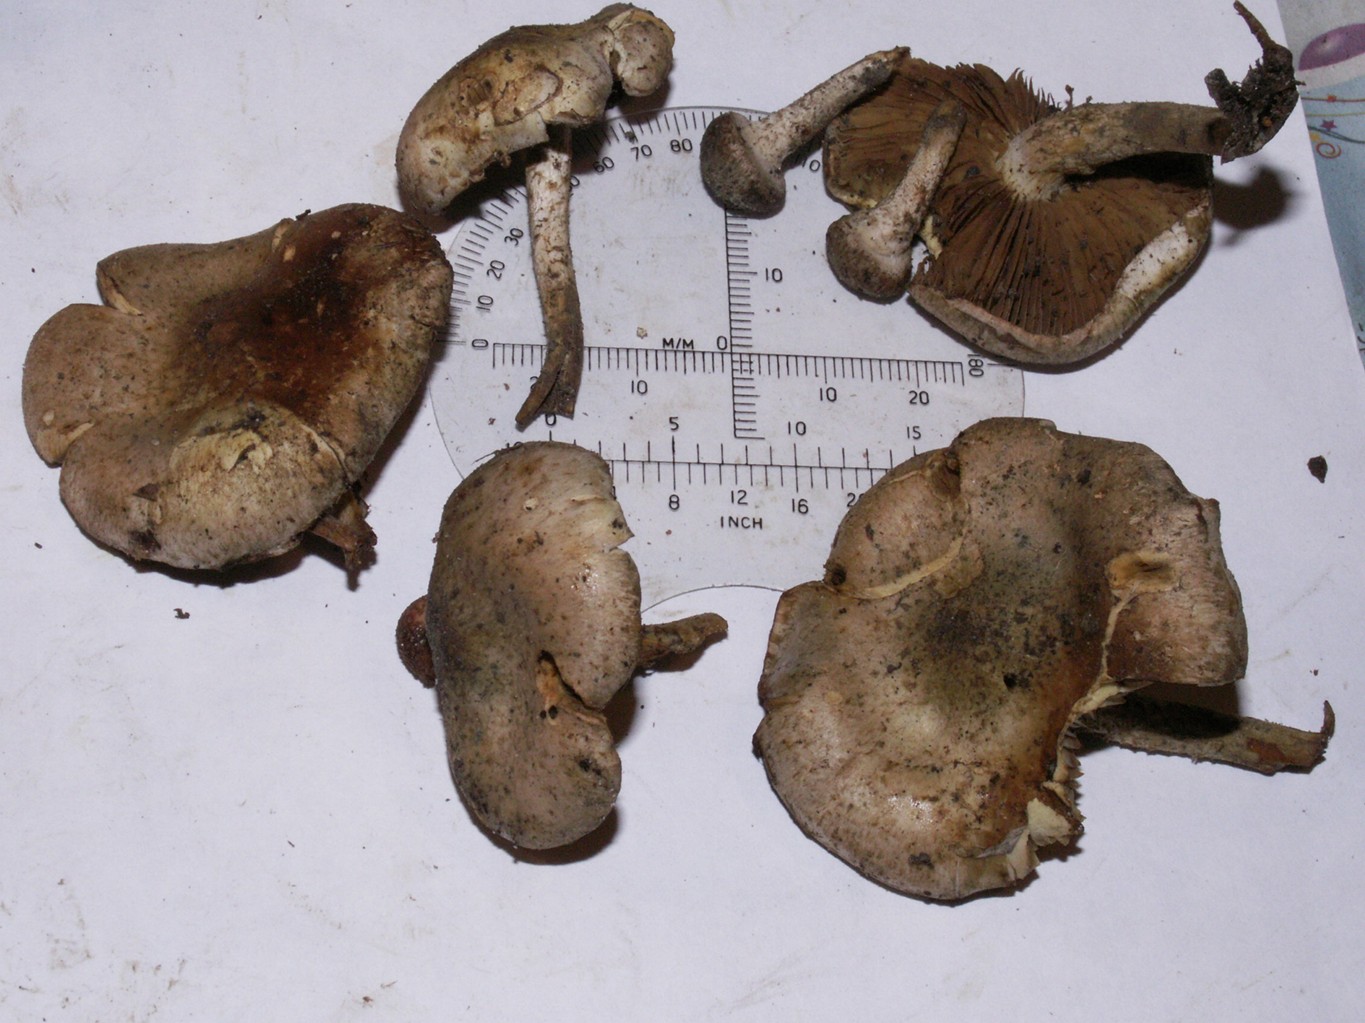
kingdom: Fungi
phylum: Basidiomycota
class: Agaricomycetes
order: Agaricales
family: Strophariaceae
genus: Pholiota
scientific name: Pholiota gummosa
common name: grøngul skælhat
